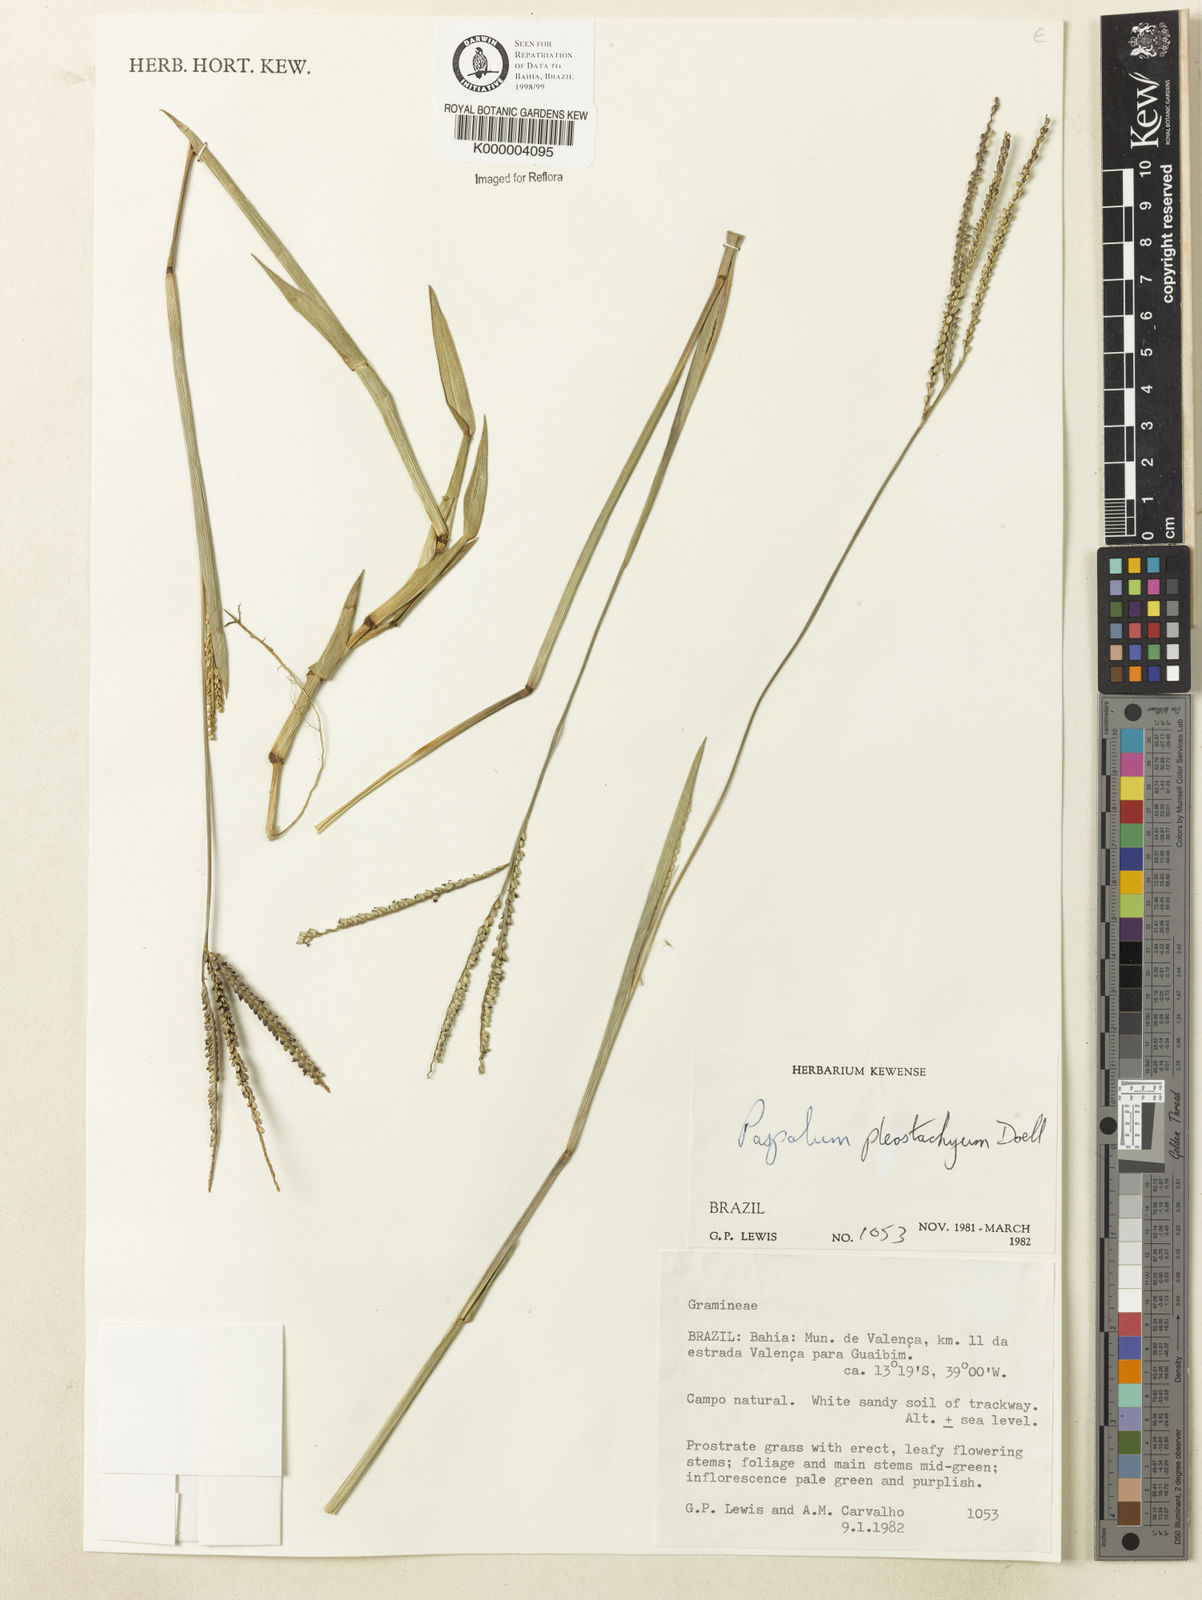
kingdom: Plantae
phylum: Tracheophyta
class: Liliopsida
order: Poales
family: Poaceae
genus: Paspalum
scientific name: Paspalum
